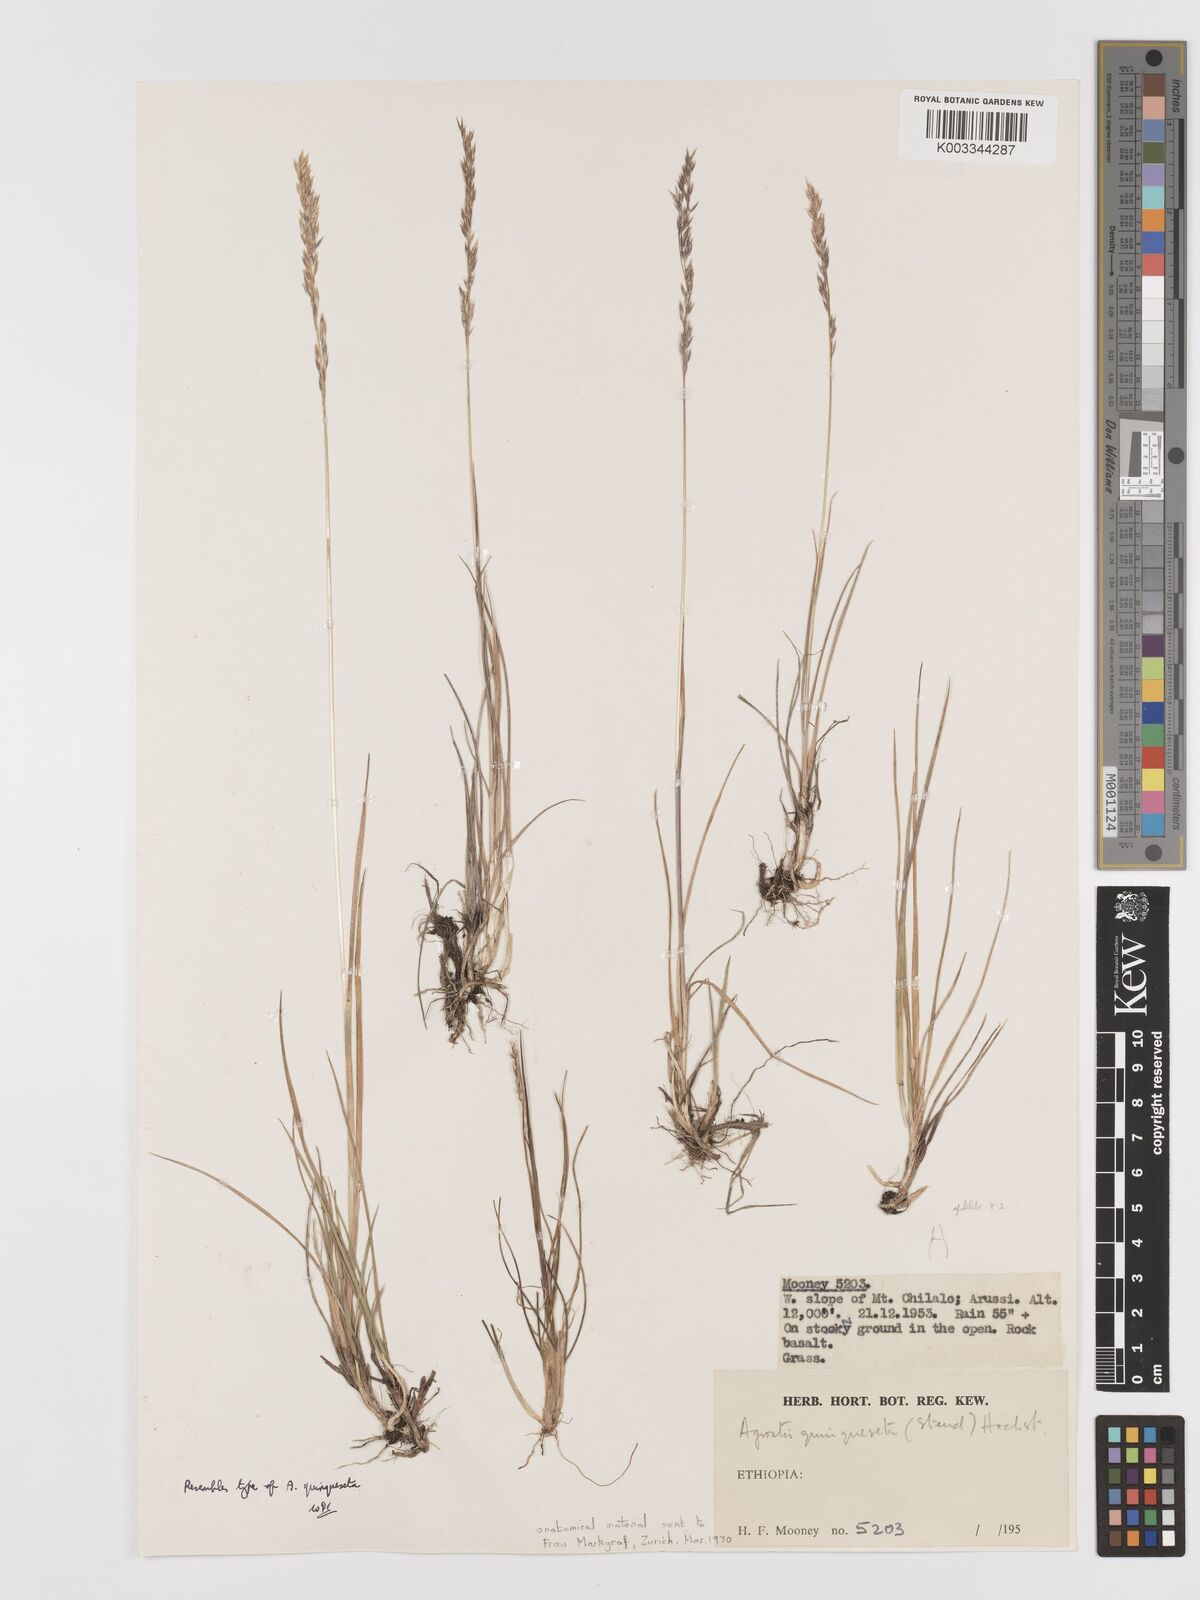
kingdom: Plantae
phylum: Tracheophyta
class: Liliopsida
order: Poales
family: Poaceae
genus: Agrostis
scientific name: Agrostis quinqueseta
